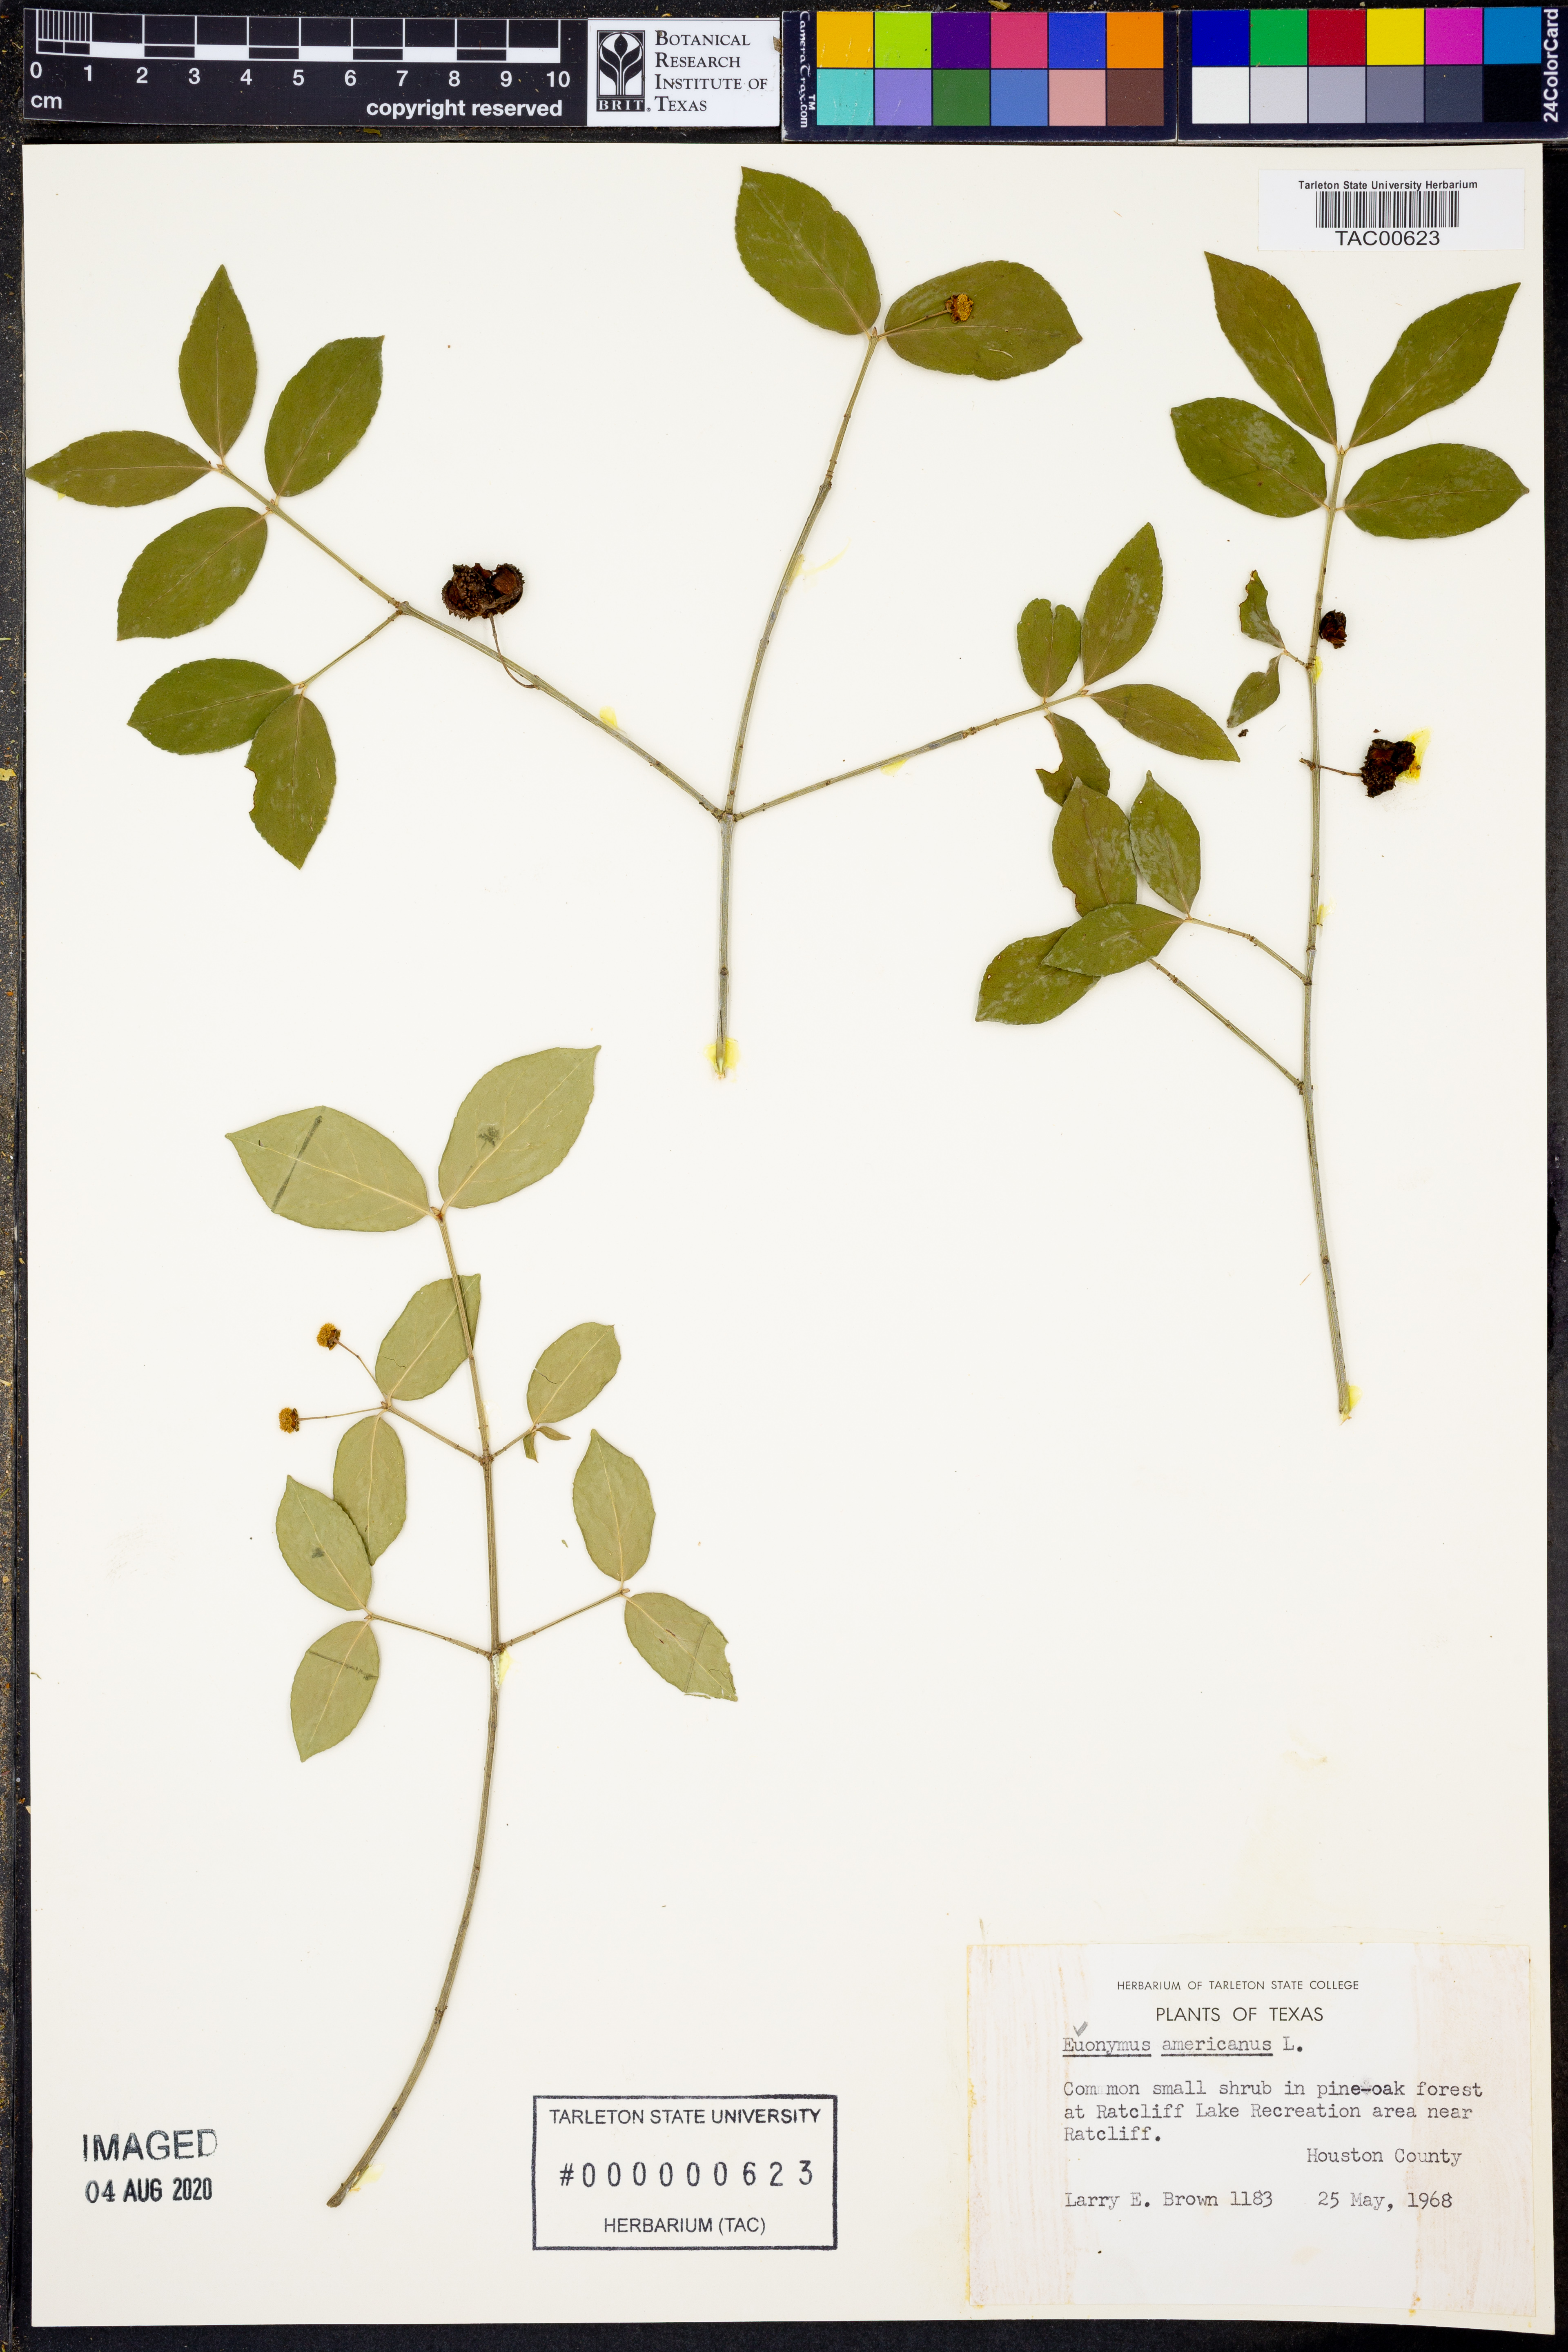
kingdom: Plantae
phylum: Tracheophyta
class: Magnoliopsida
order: Celastrales
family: Celastraceae
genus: Euonymus
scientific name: Euonymus americanus
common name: Bursting-heart
